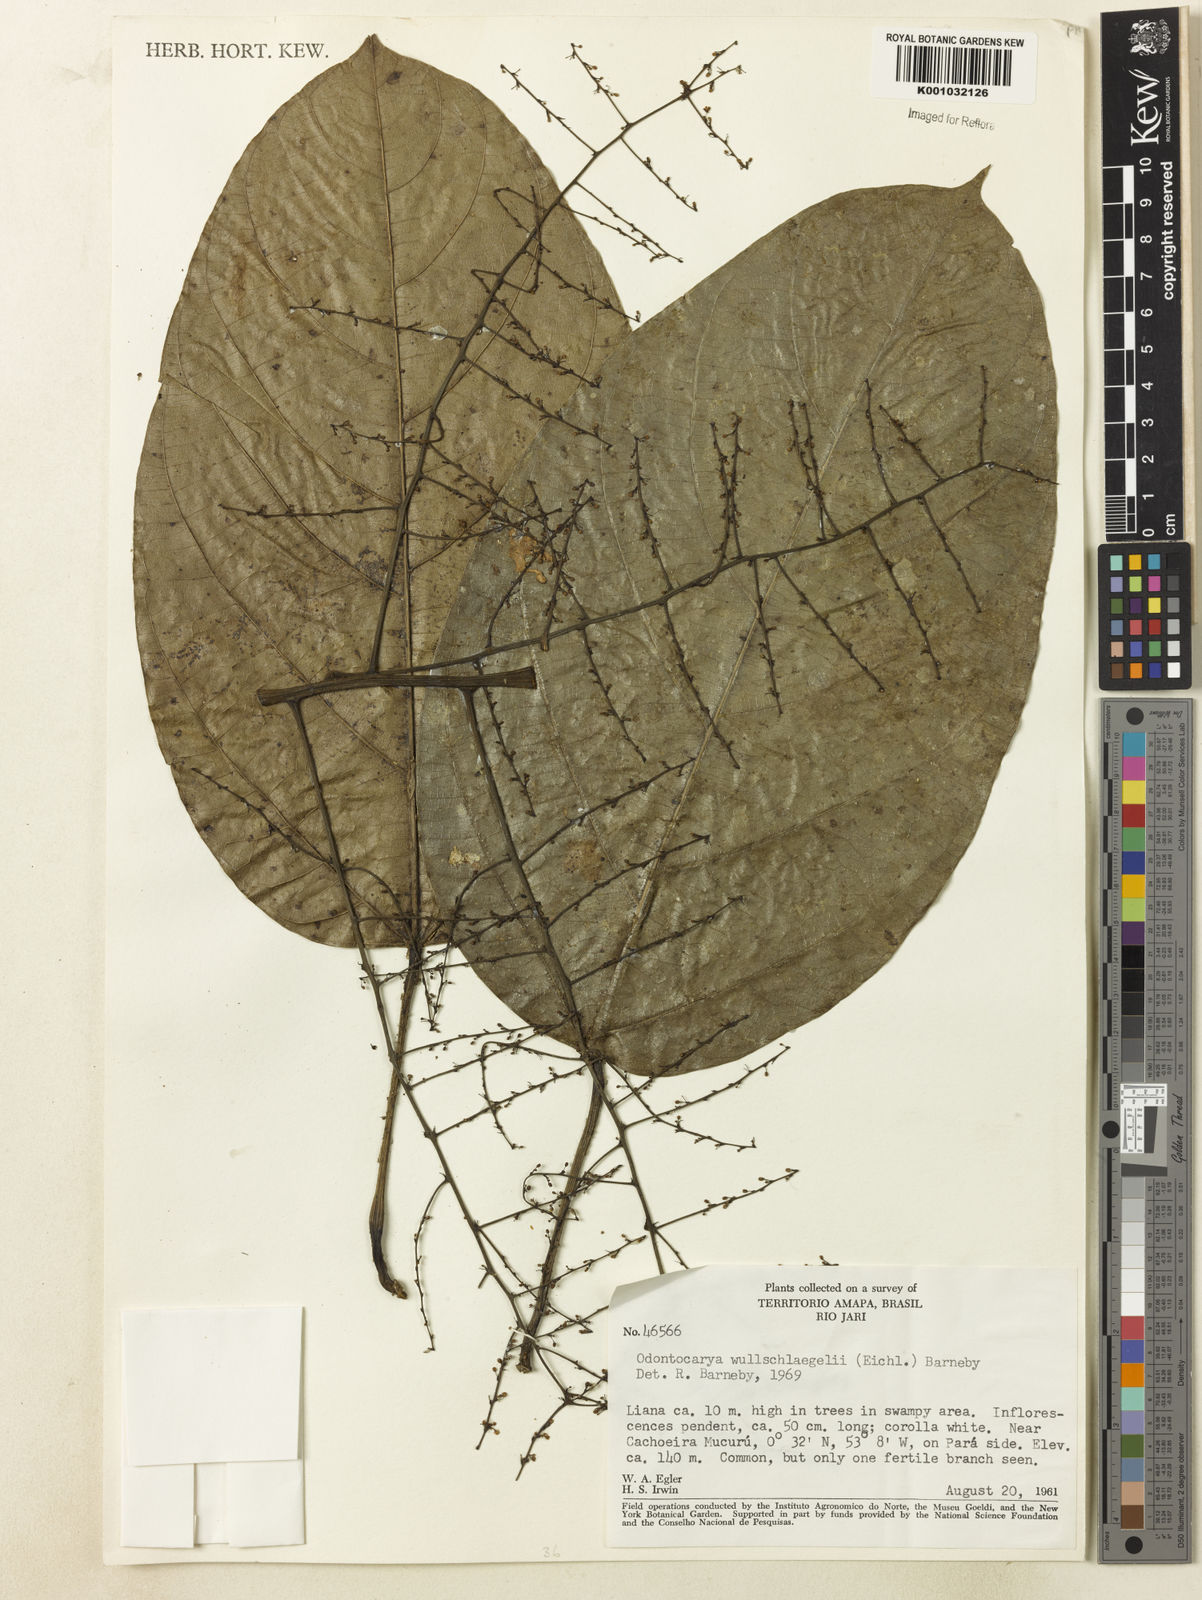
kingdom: Plantae
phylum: Tracheophyta
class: Magnoliopsida
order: Ranunculales
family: Menispermaceae
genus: Odontocarya
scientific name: Odontocarya wullschlaegelii
